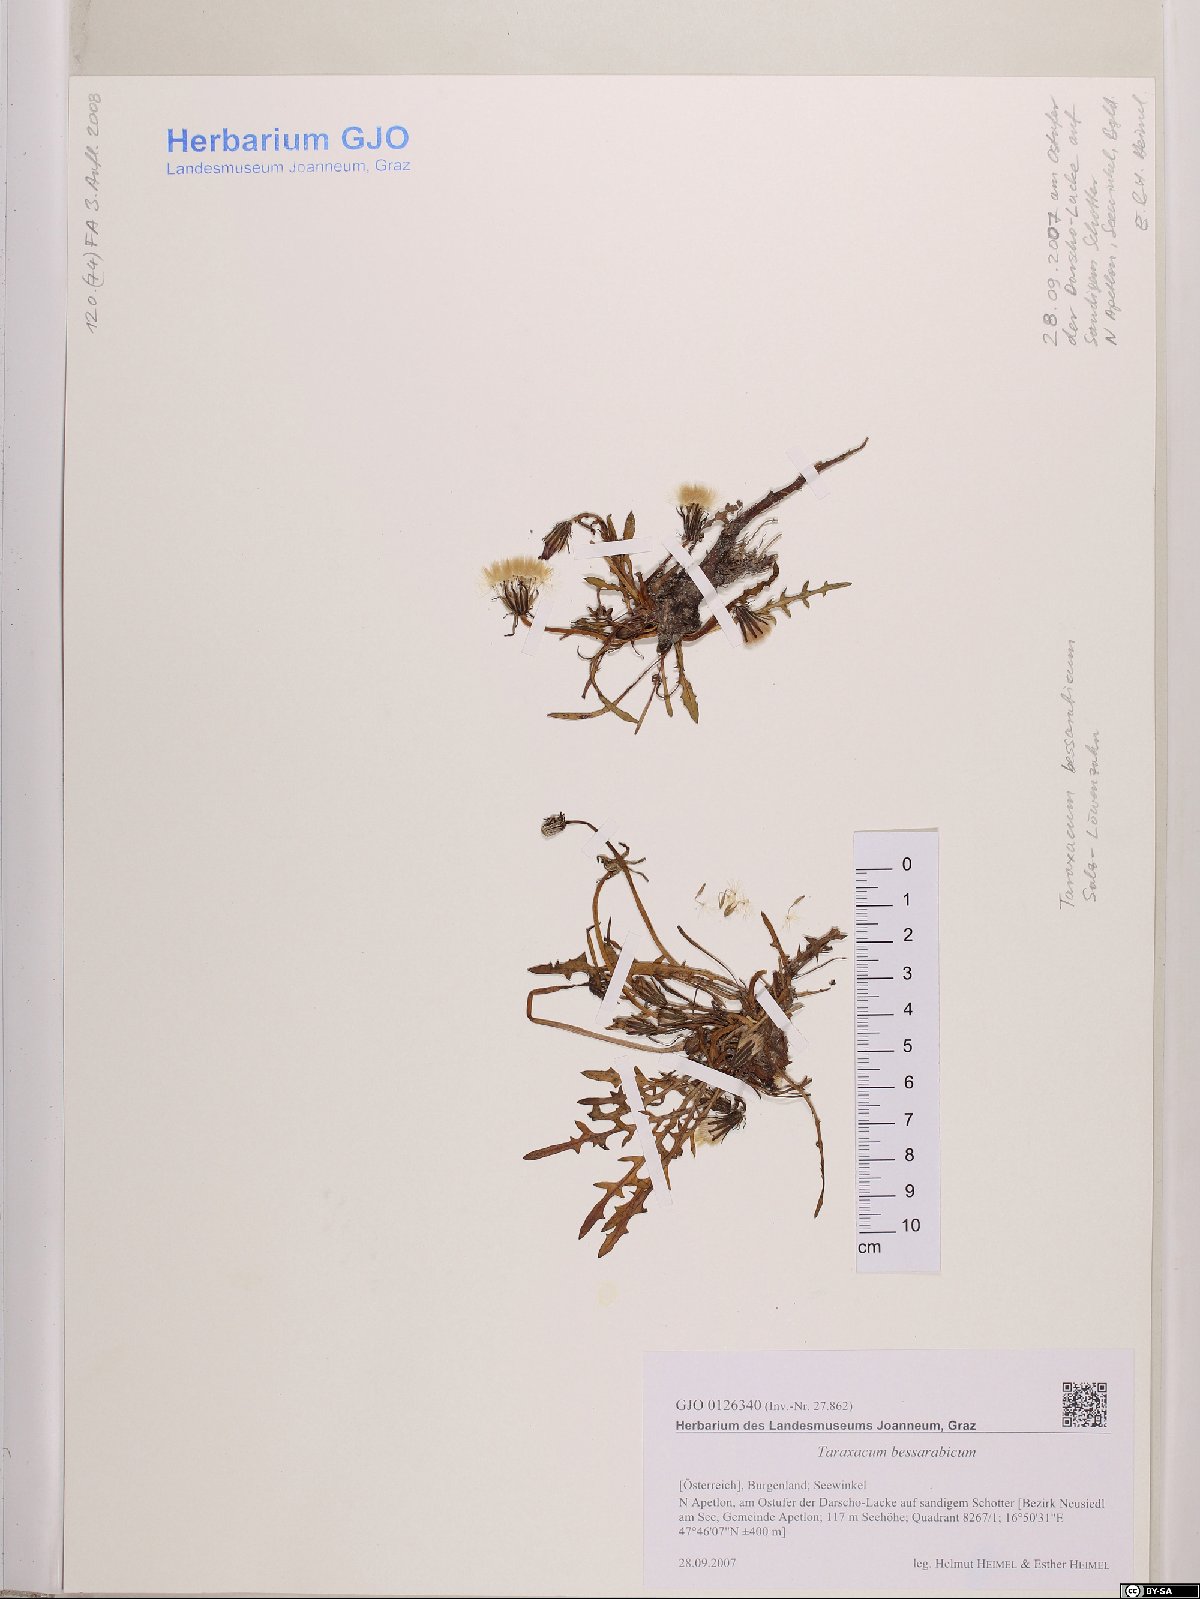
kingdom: Plantae
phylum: Tracheophyta
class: Magnoliopsida
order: Asterales
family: Asteraceae
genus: Taraxacum
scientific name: Taraxacum bessarabicum
